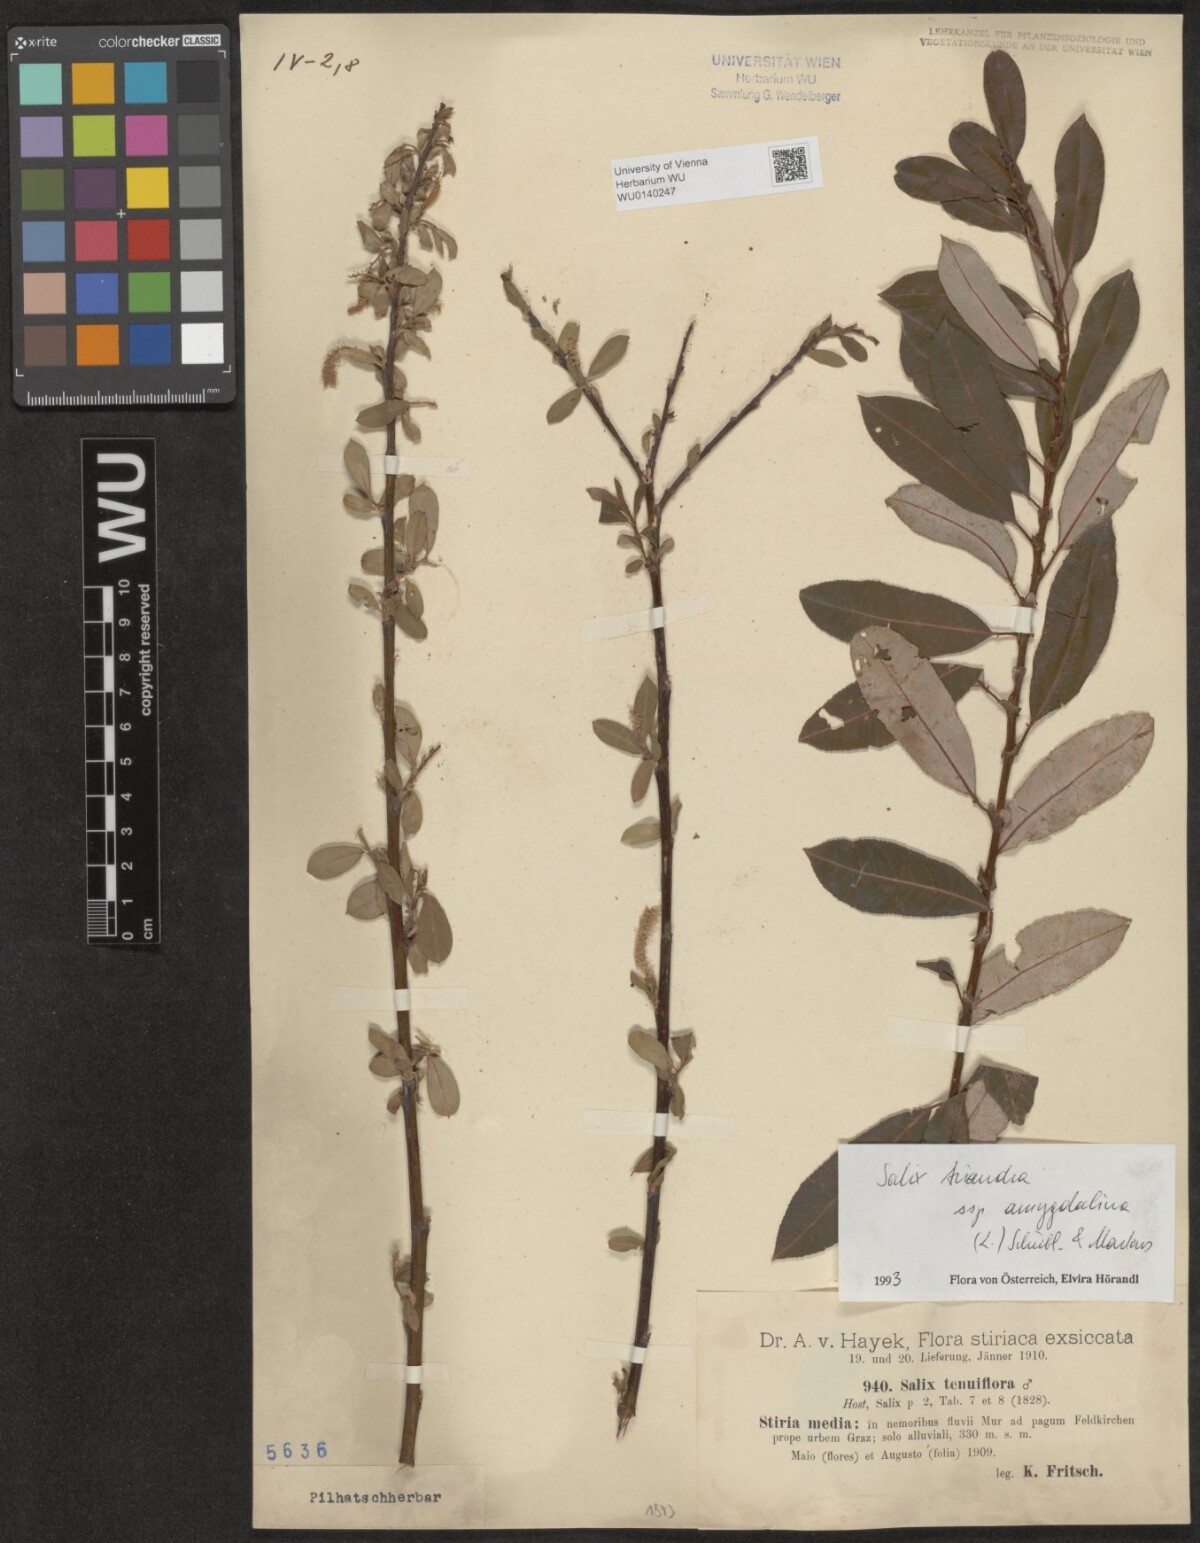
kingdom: Plantae
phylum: Tracheophyta
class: Magnoliopsida
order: Malpighiales
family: Salicaceae
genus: Salix
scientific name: Salix triandra
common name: Almond willow
